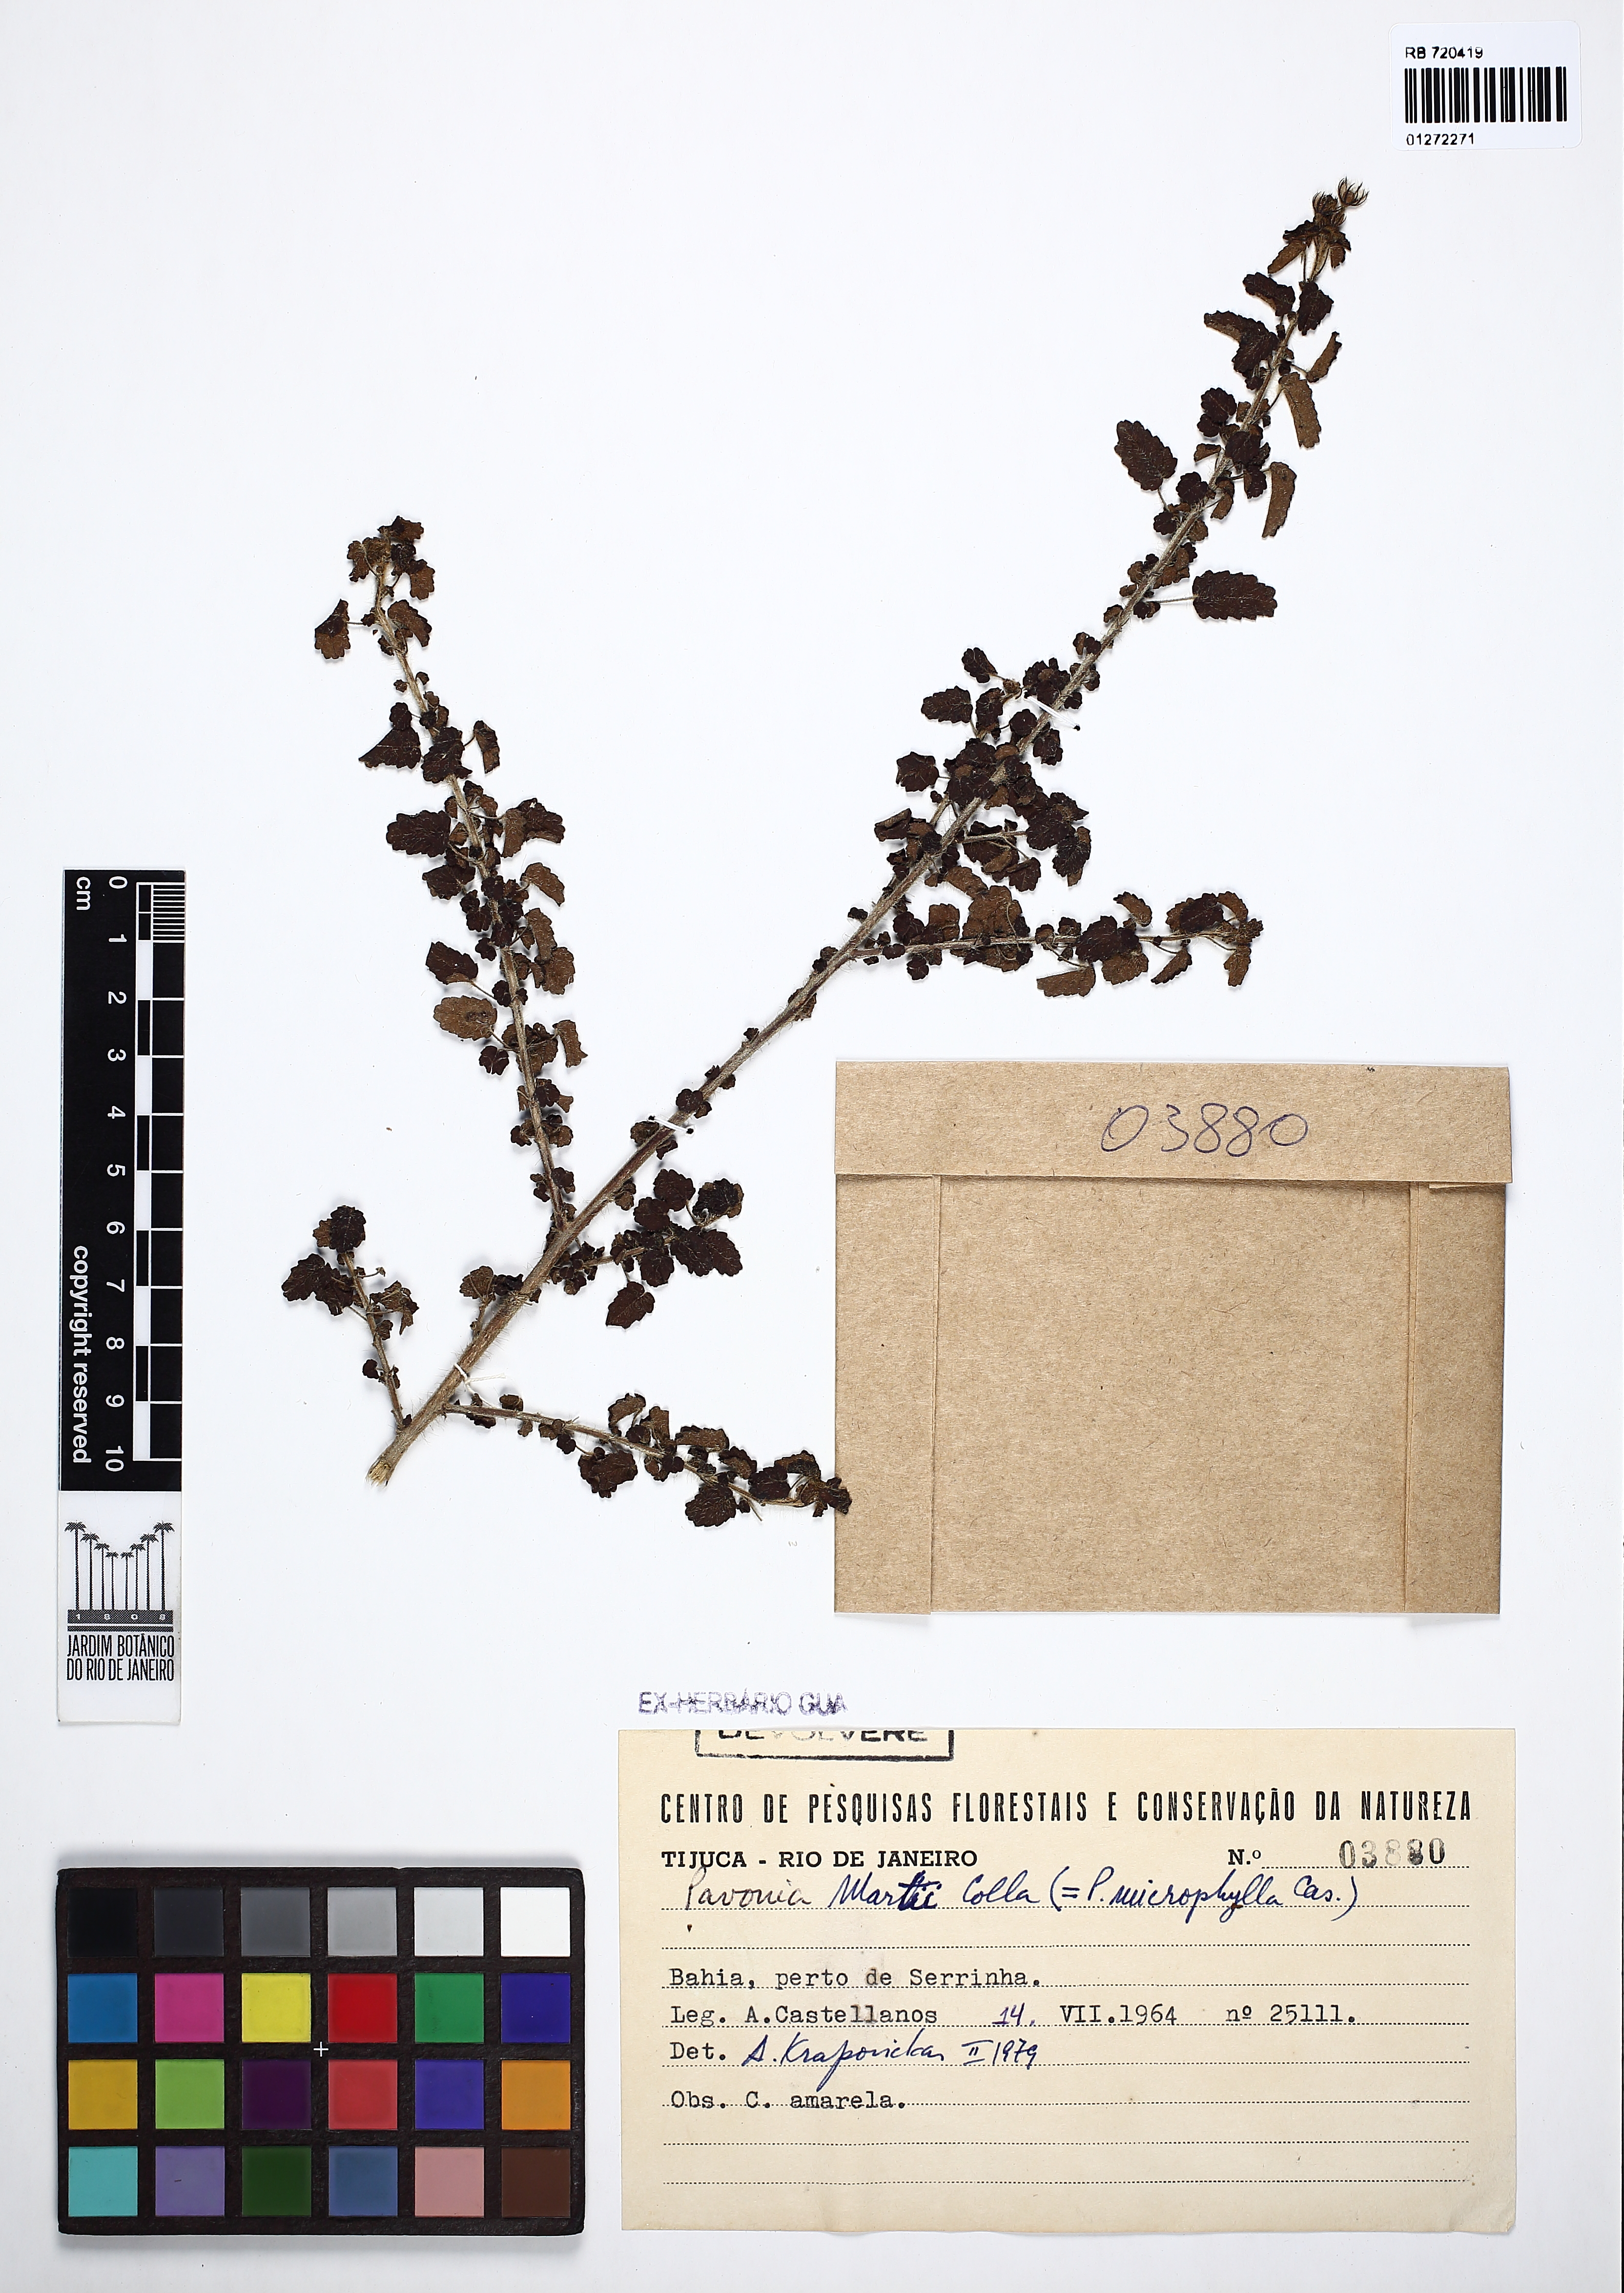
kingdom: Plantae
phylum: Tracheophyta
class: Magnoliopsida
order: Malvales
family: Malvaceae
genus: Pavonia
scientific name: Pavonia martii
